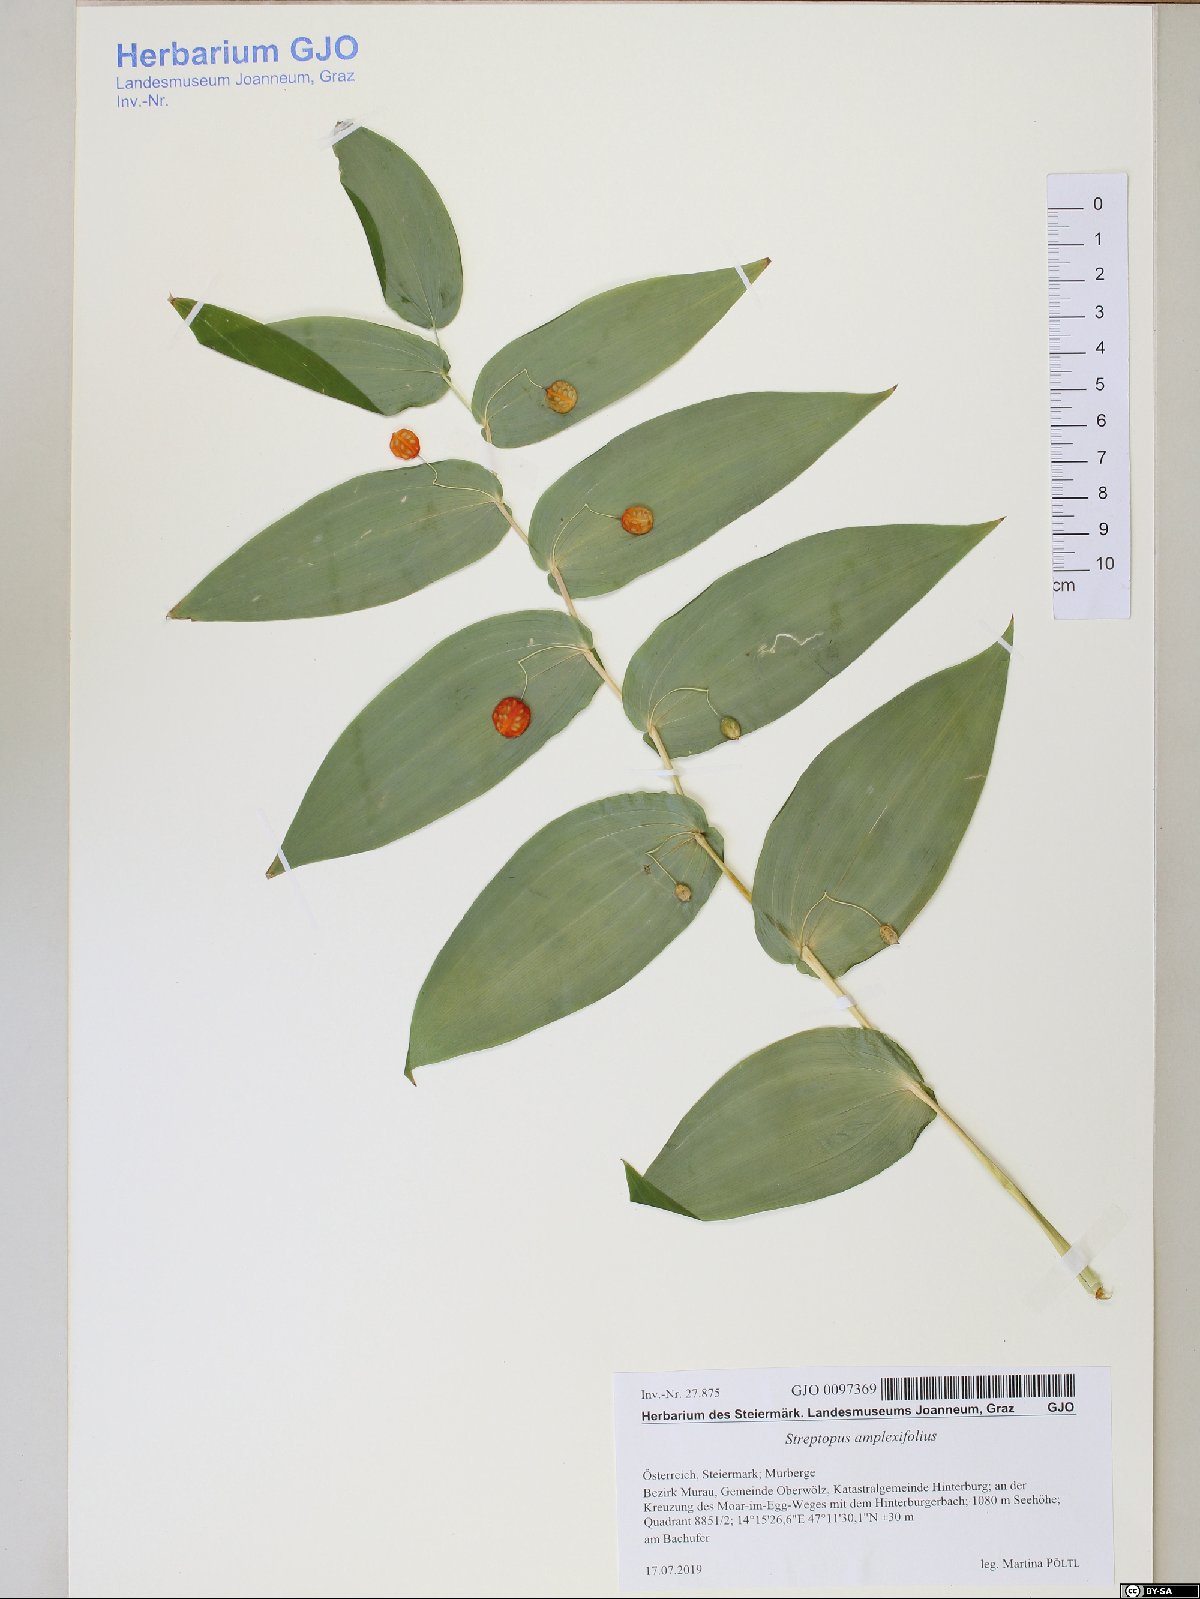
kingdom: Plantae
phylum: Tracheophyta
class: Liliopsida
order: Liliales
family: Liliaceae
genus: Streptopus
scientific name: Streptopus amplexifolius
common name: Clasp twisted stalk
